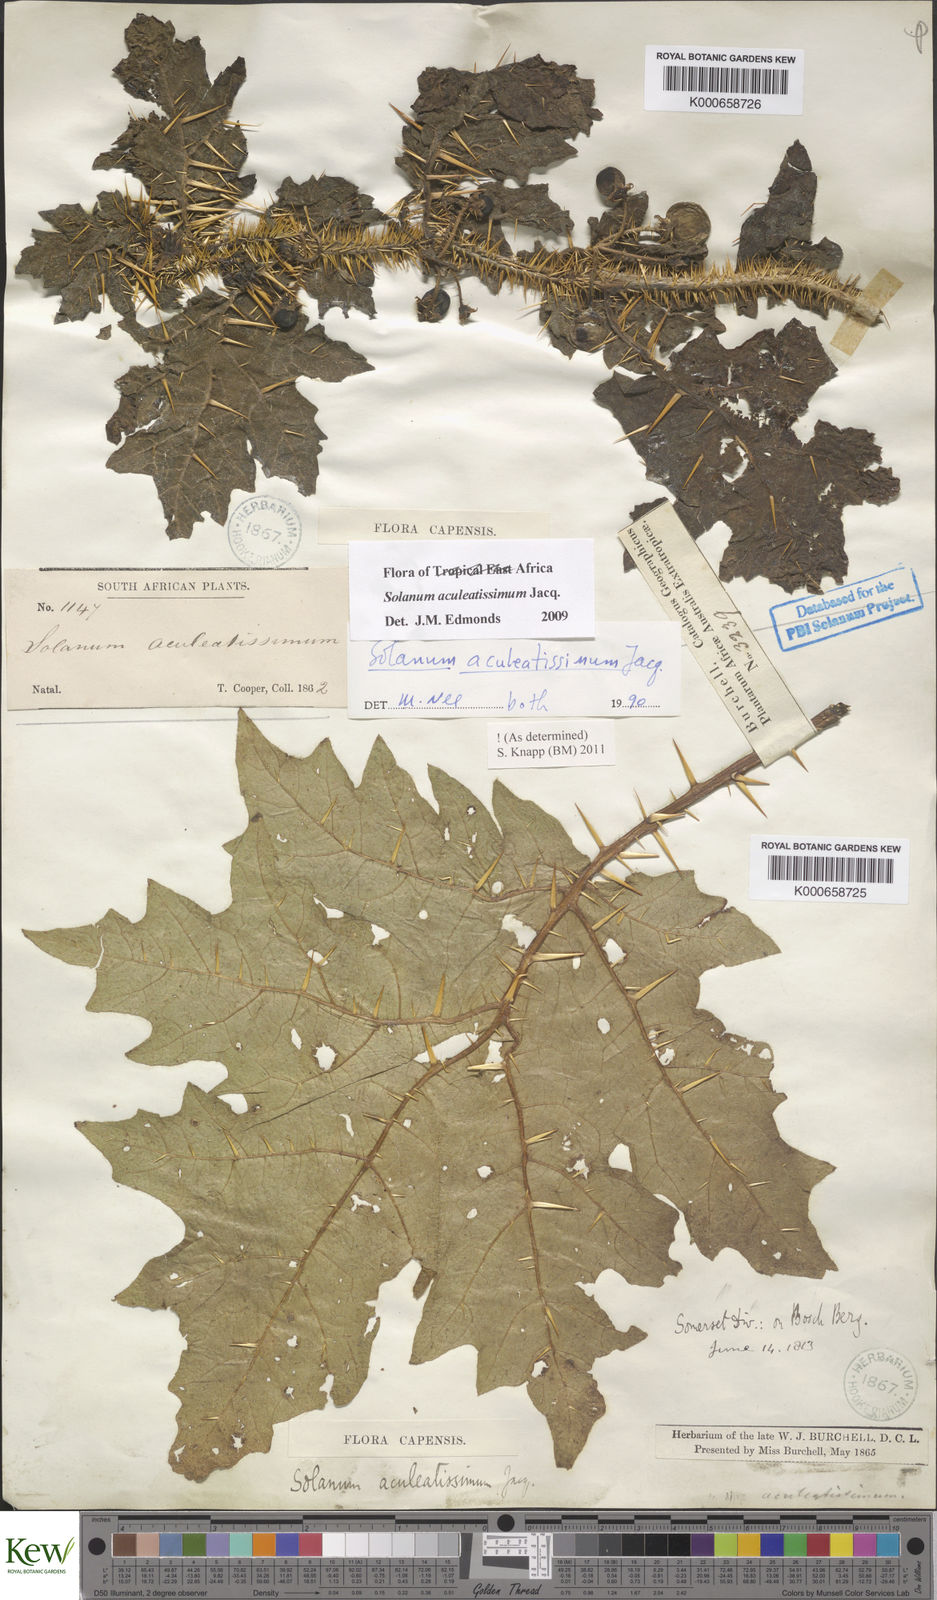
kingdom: Plantae
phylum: Tracheophyta
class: Magnoliopsida
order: Solanales
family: Solanaceae
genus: Solanum
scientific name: Solanum aculeatissimum
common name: Dutch eggplant
